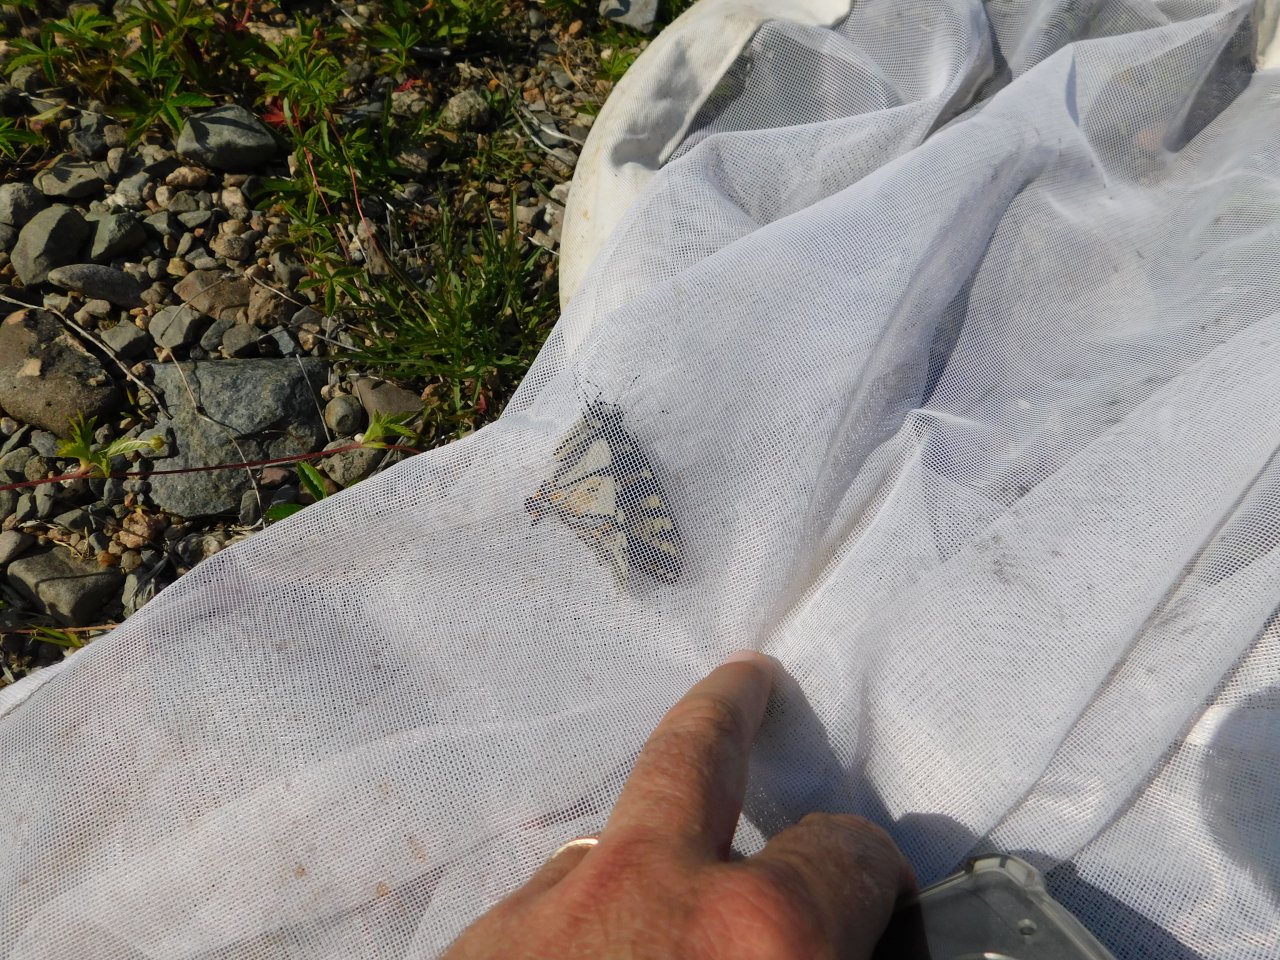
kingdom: Animalia
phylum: Arthropoda
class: Insecta
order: Lepidoptera
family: Papilionidae
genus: Pterourus
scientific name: Pterourus canadensis
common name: Canadian Tiger Swallowtail
